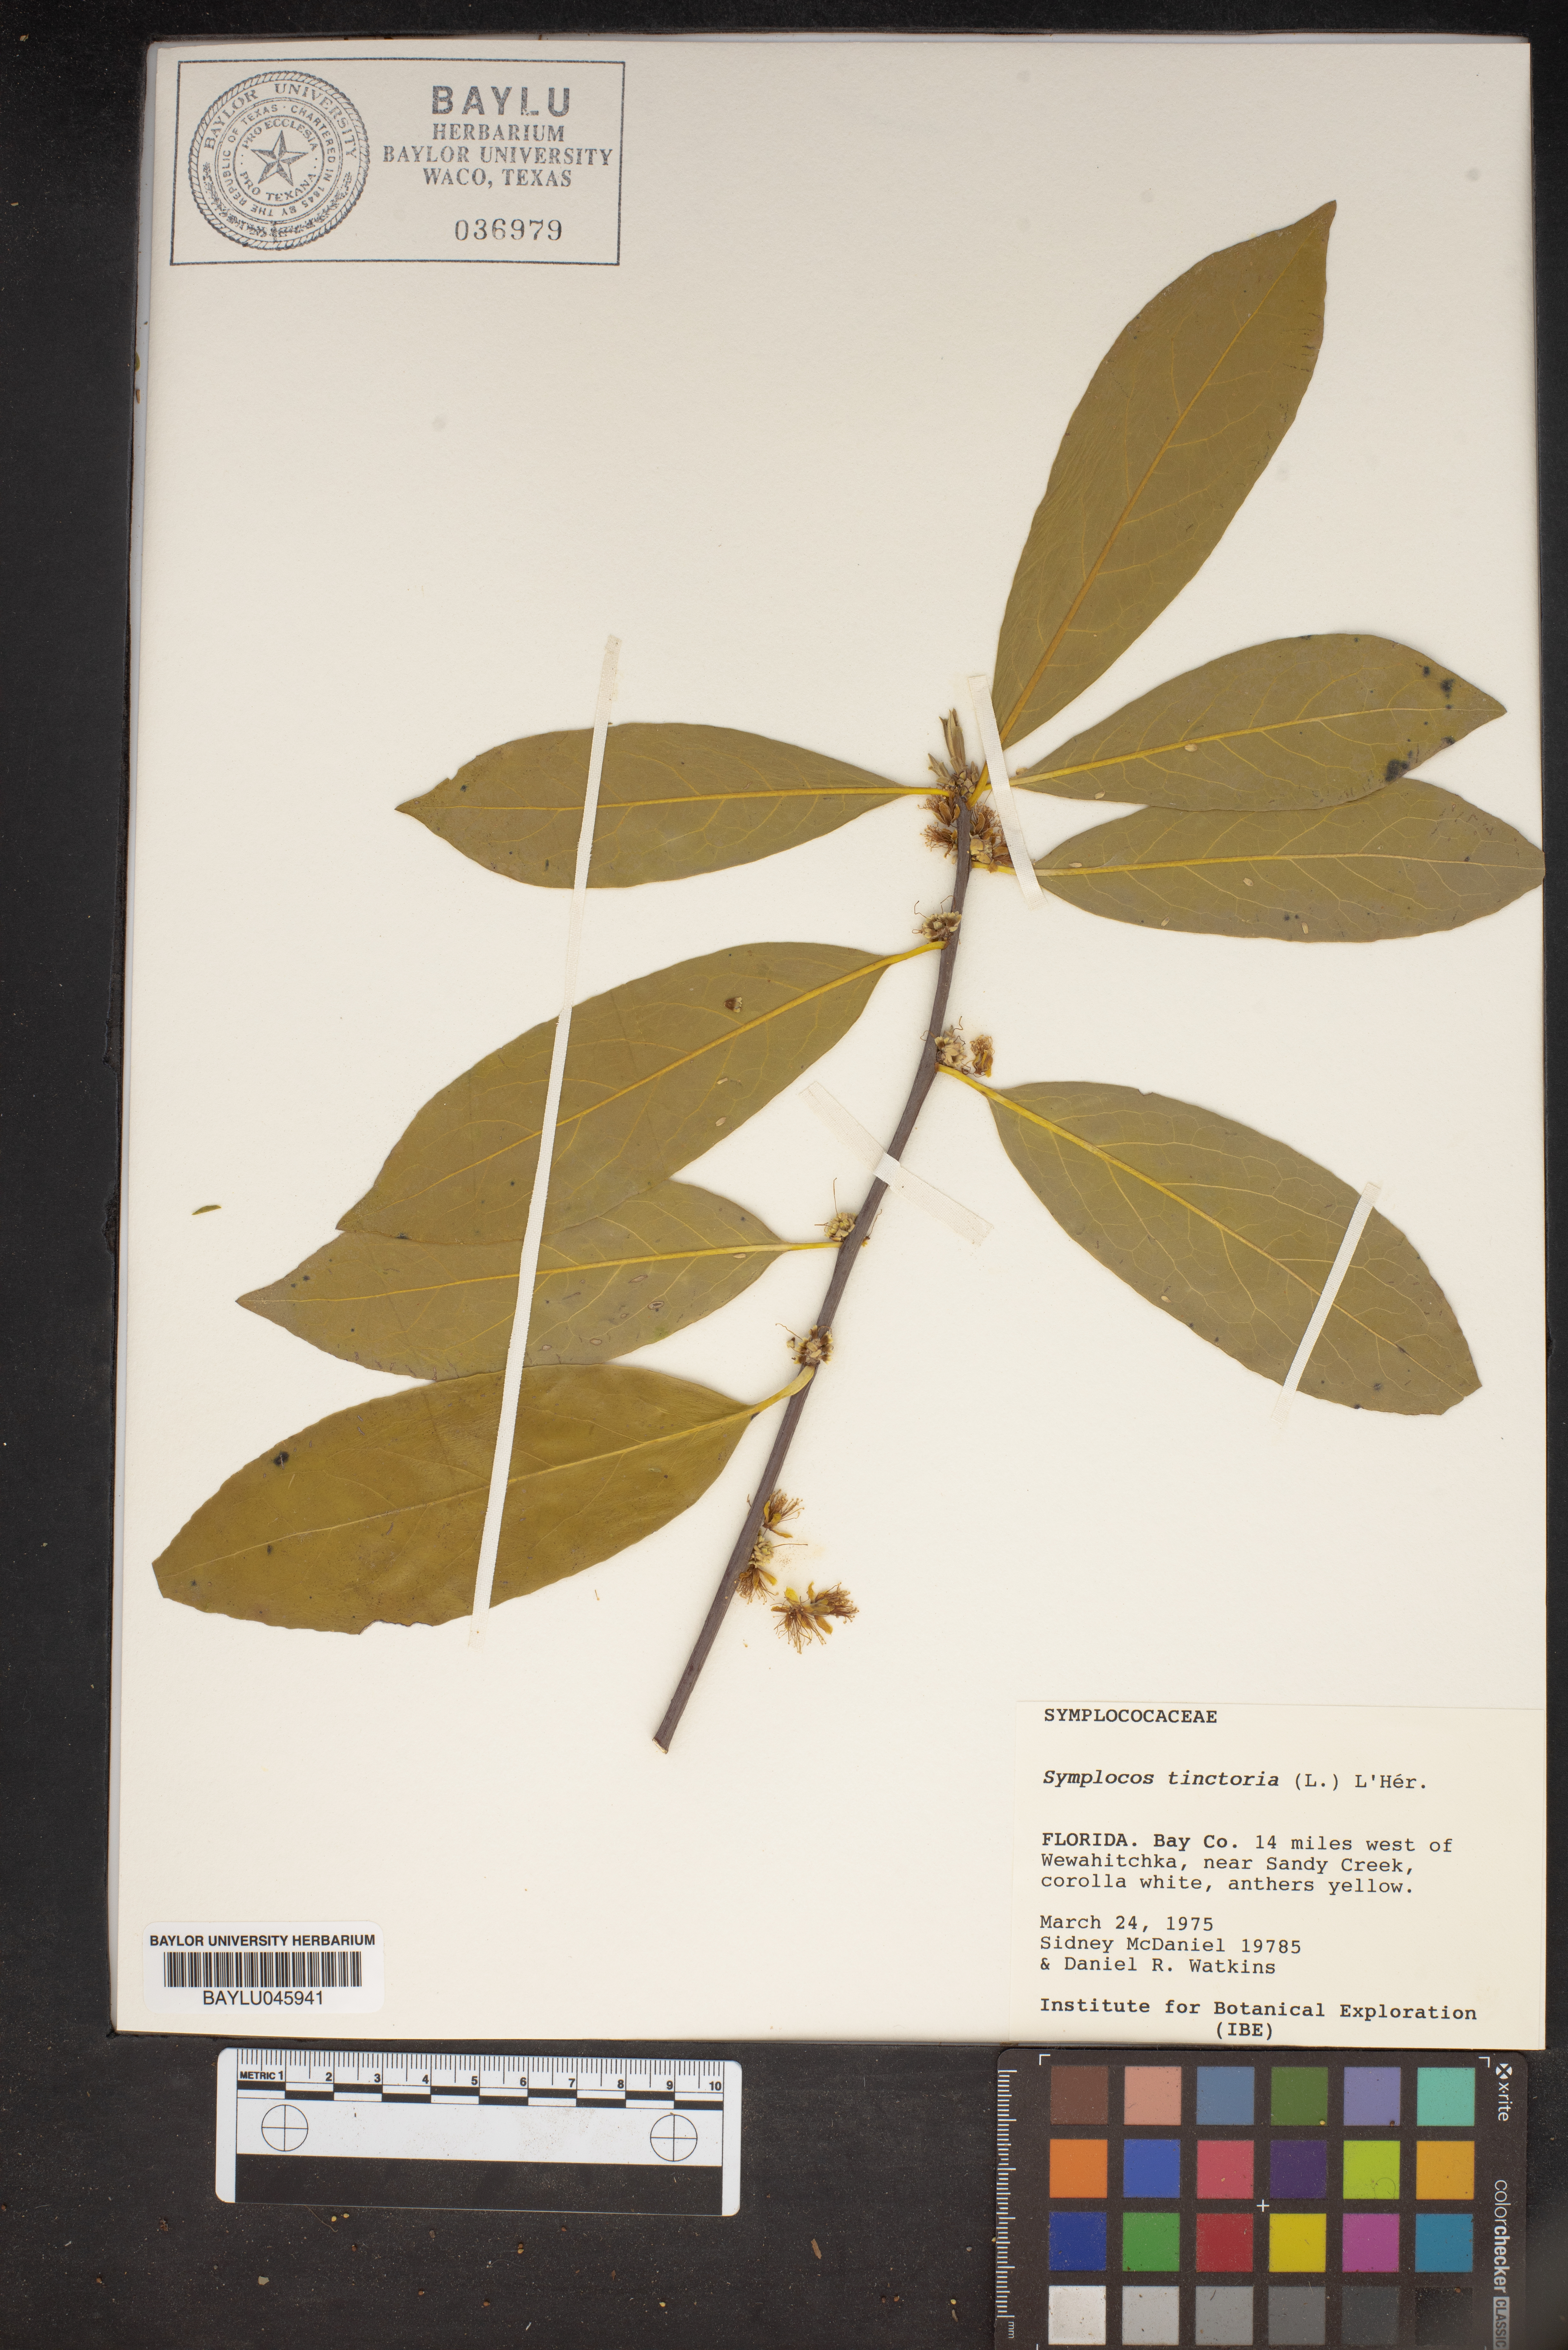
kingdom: Plantae
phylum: Tracheophyta
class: Magnoliopsida
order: Ericales
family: Symplocaceae
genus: Symplocos
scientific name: Symplocos tinctoria
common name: Horse-sugar
